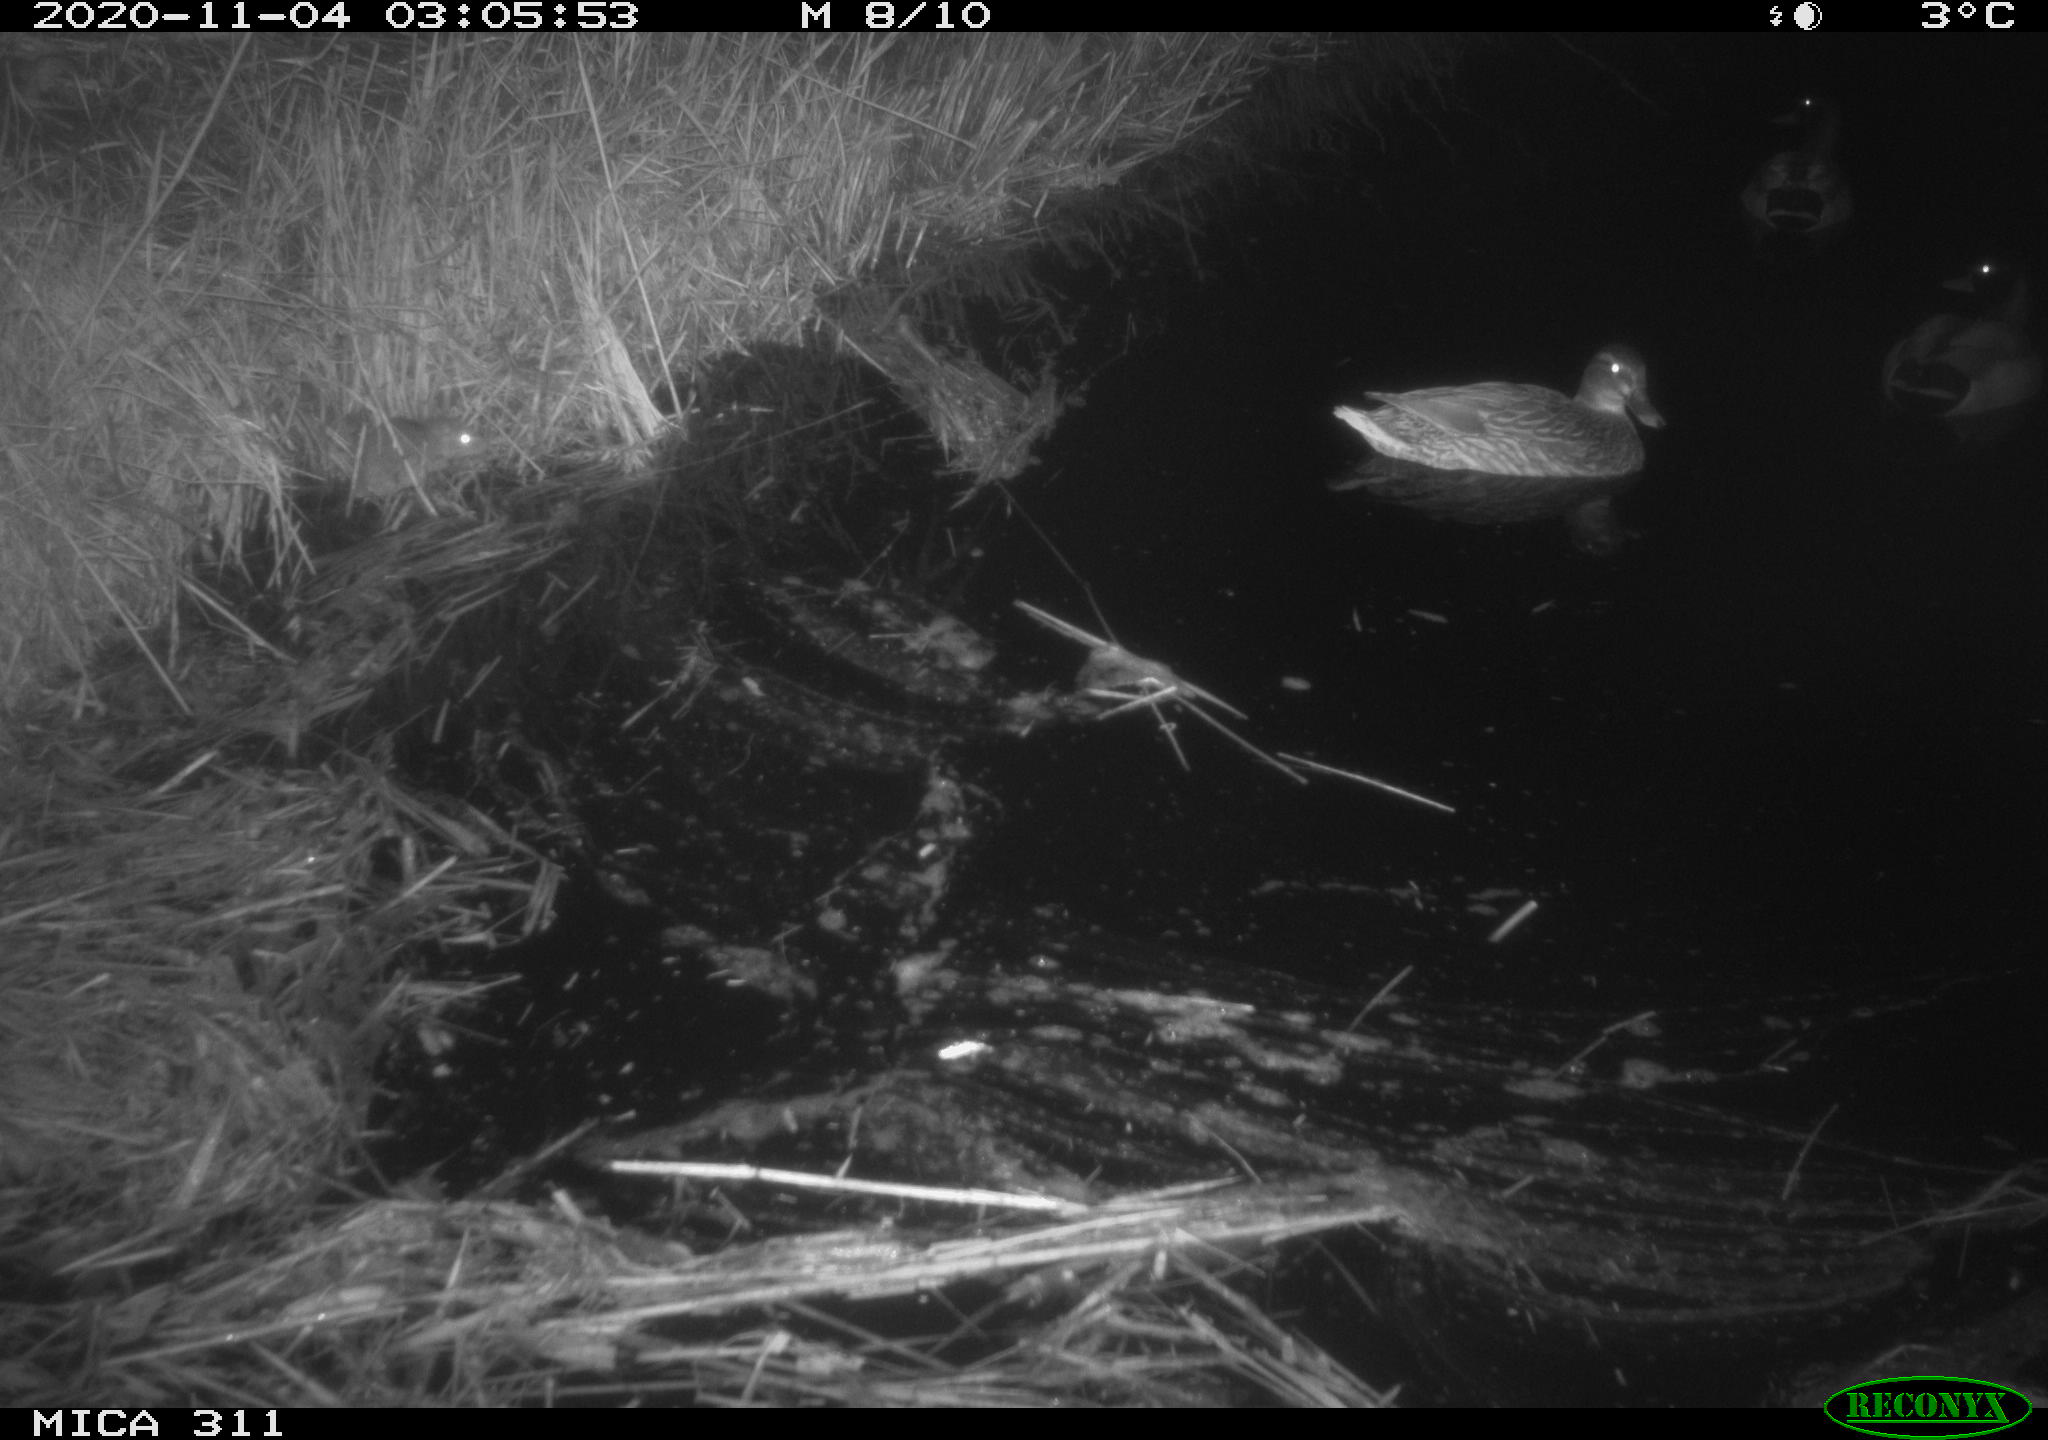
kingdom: Animalia
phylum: Chordata
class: Mammalia
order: Rodentia
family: Muridae
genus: Rattus
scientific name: Rattus norvegicus
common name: Brown rat
